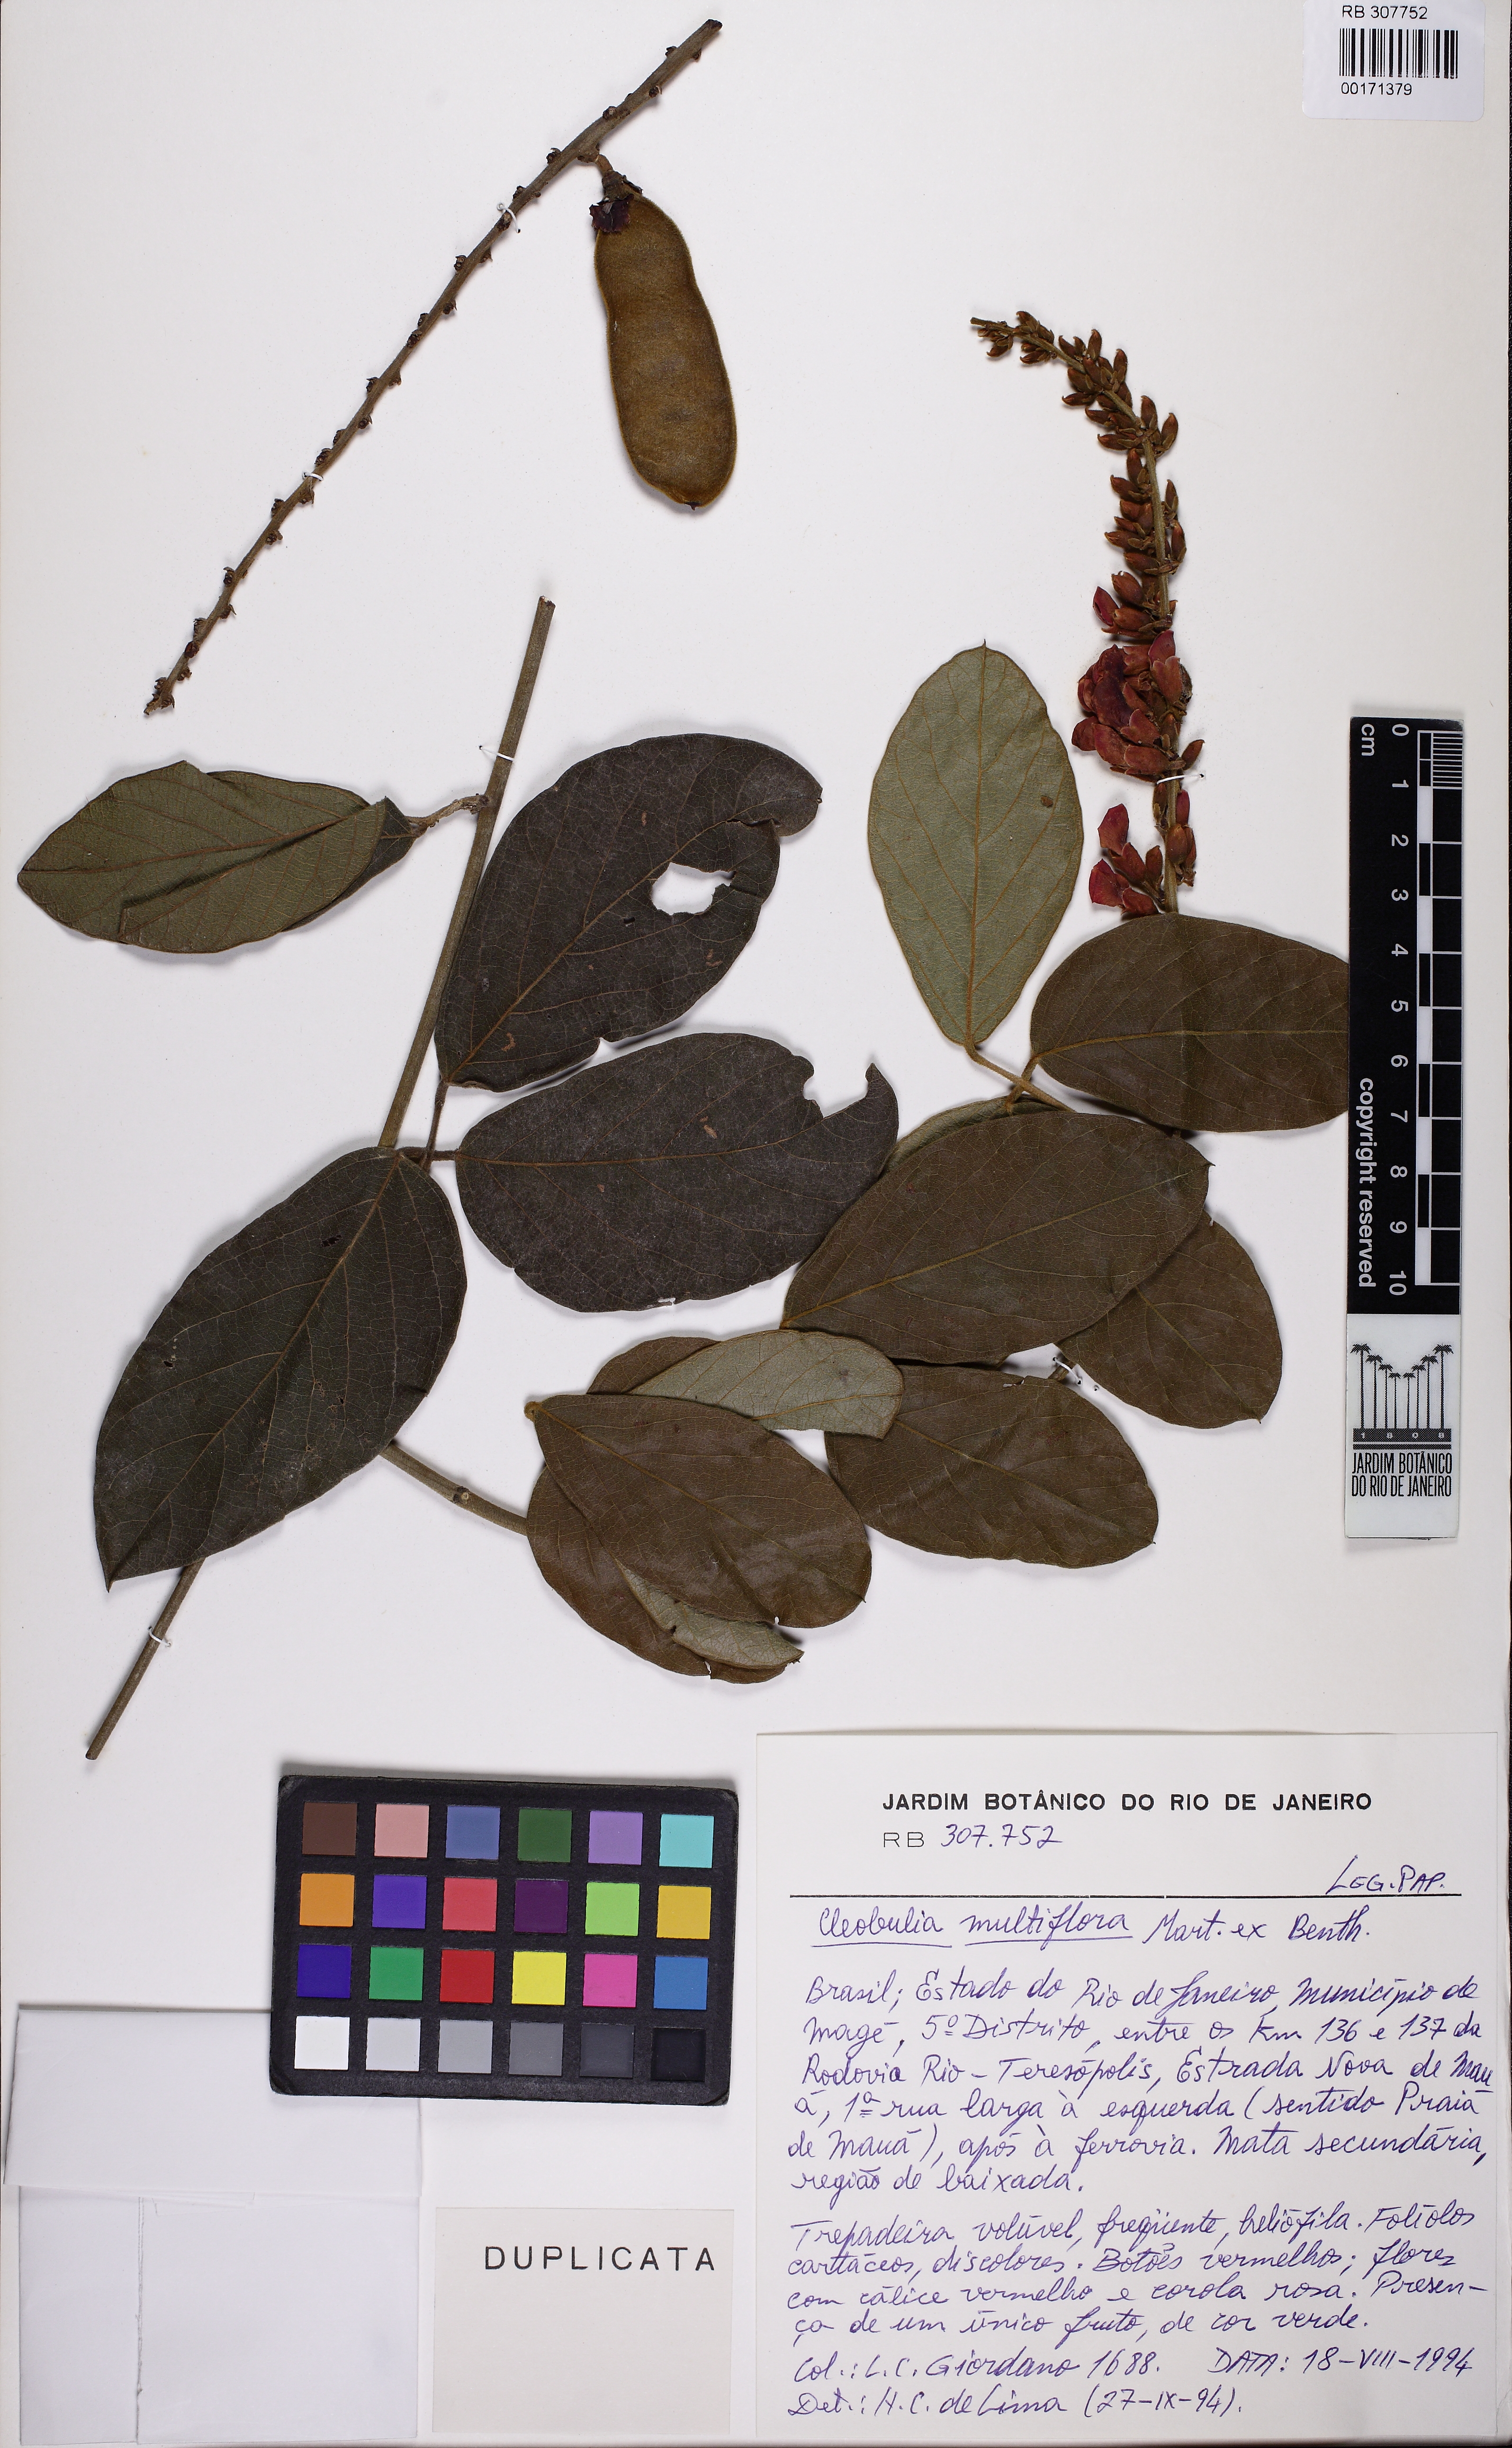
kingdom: Plantae
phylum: Tracheophyta
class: Magnoliopsida
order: Fabales
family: Fabaceae
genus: Cleobulia
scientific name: Cleobulia coccinea
